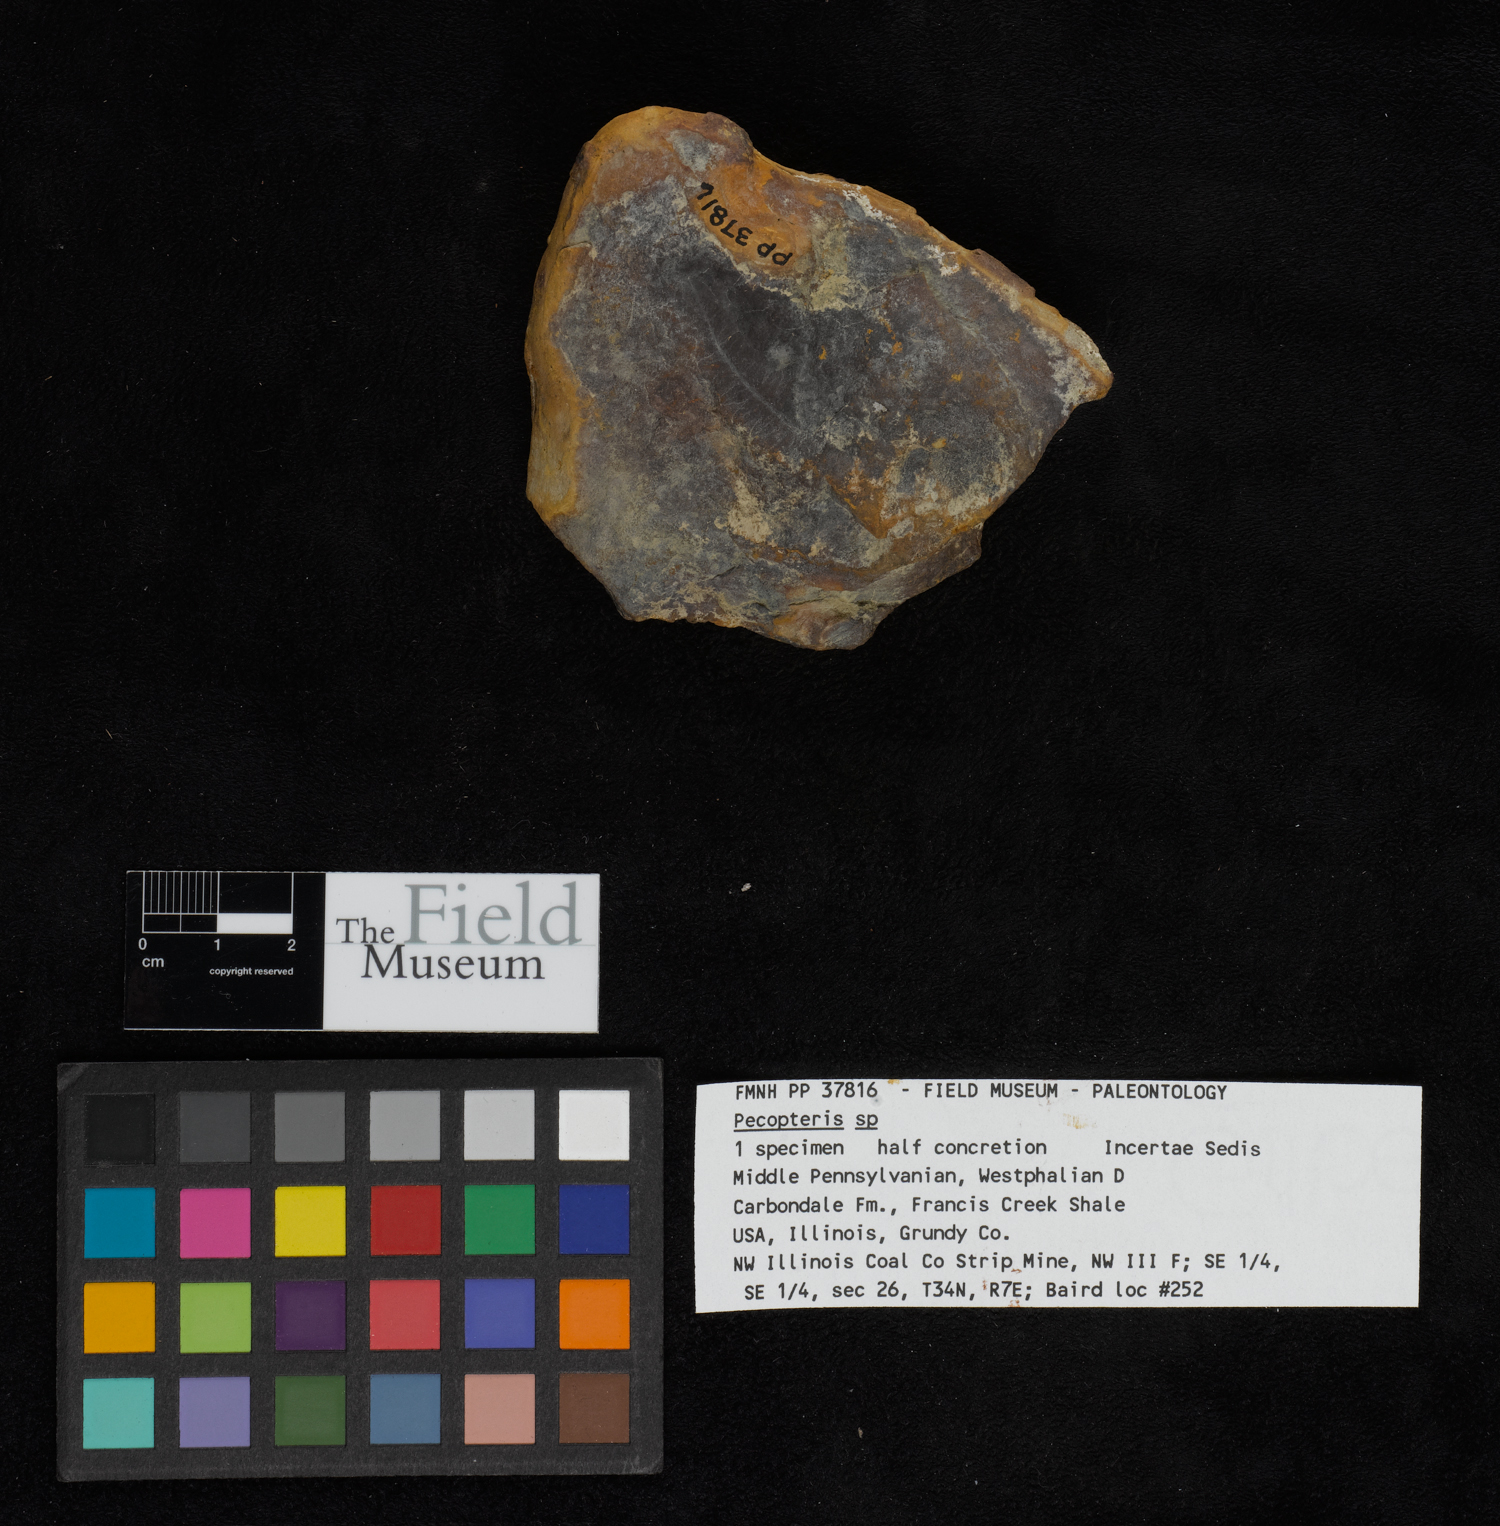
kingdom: Plantae
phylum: Tracheophyta
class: Polypodiopsida
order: Marattiales
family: Asterothecaceae
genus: Pecopteris
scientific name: Pecopteris
